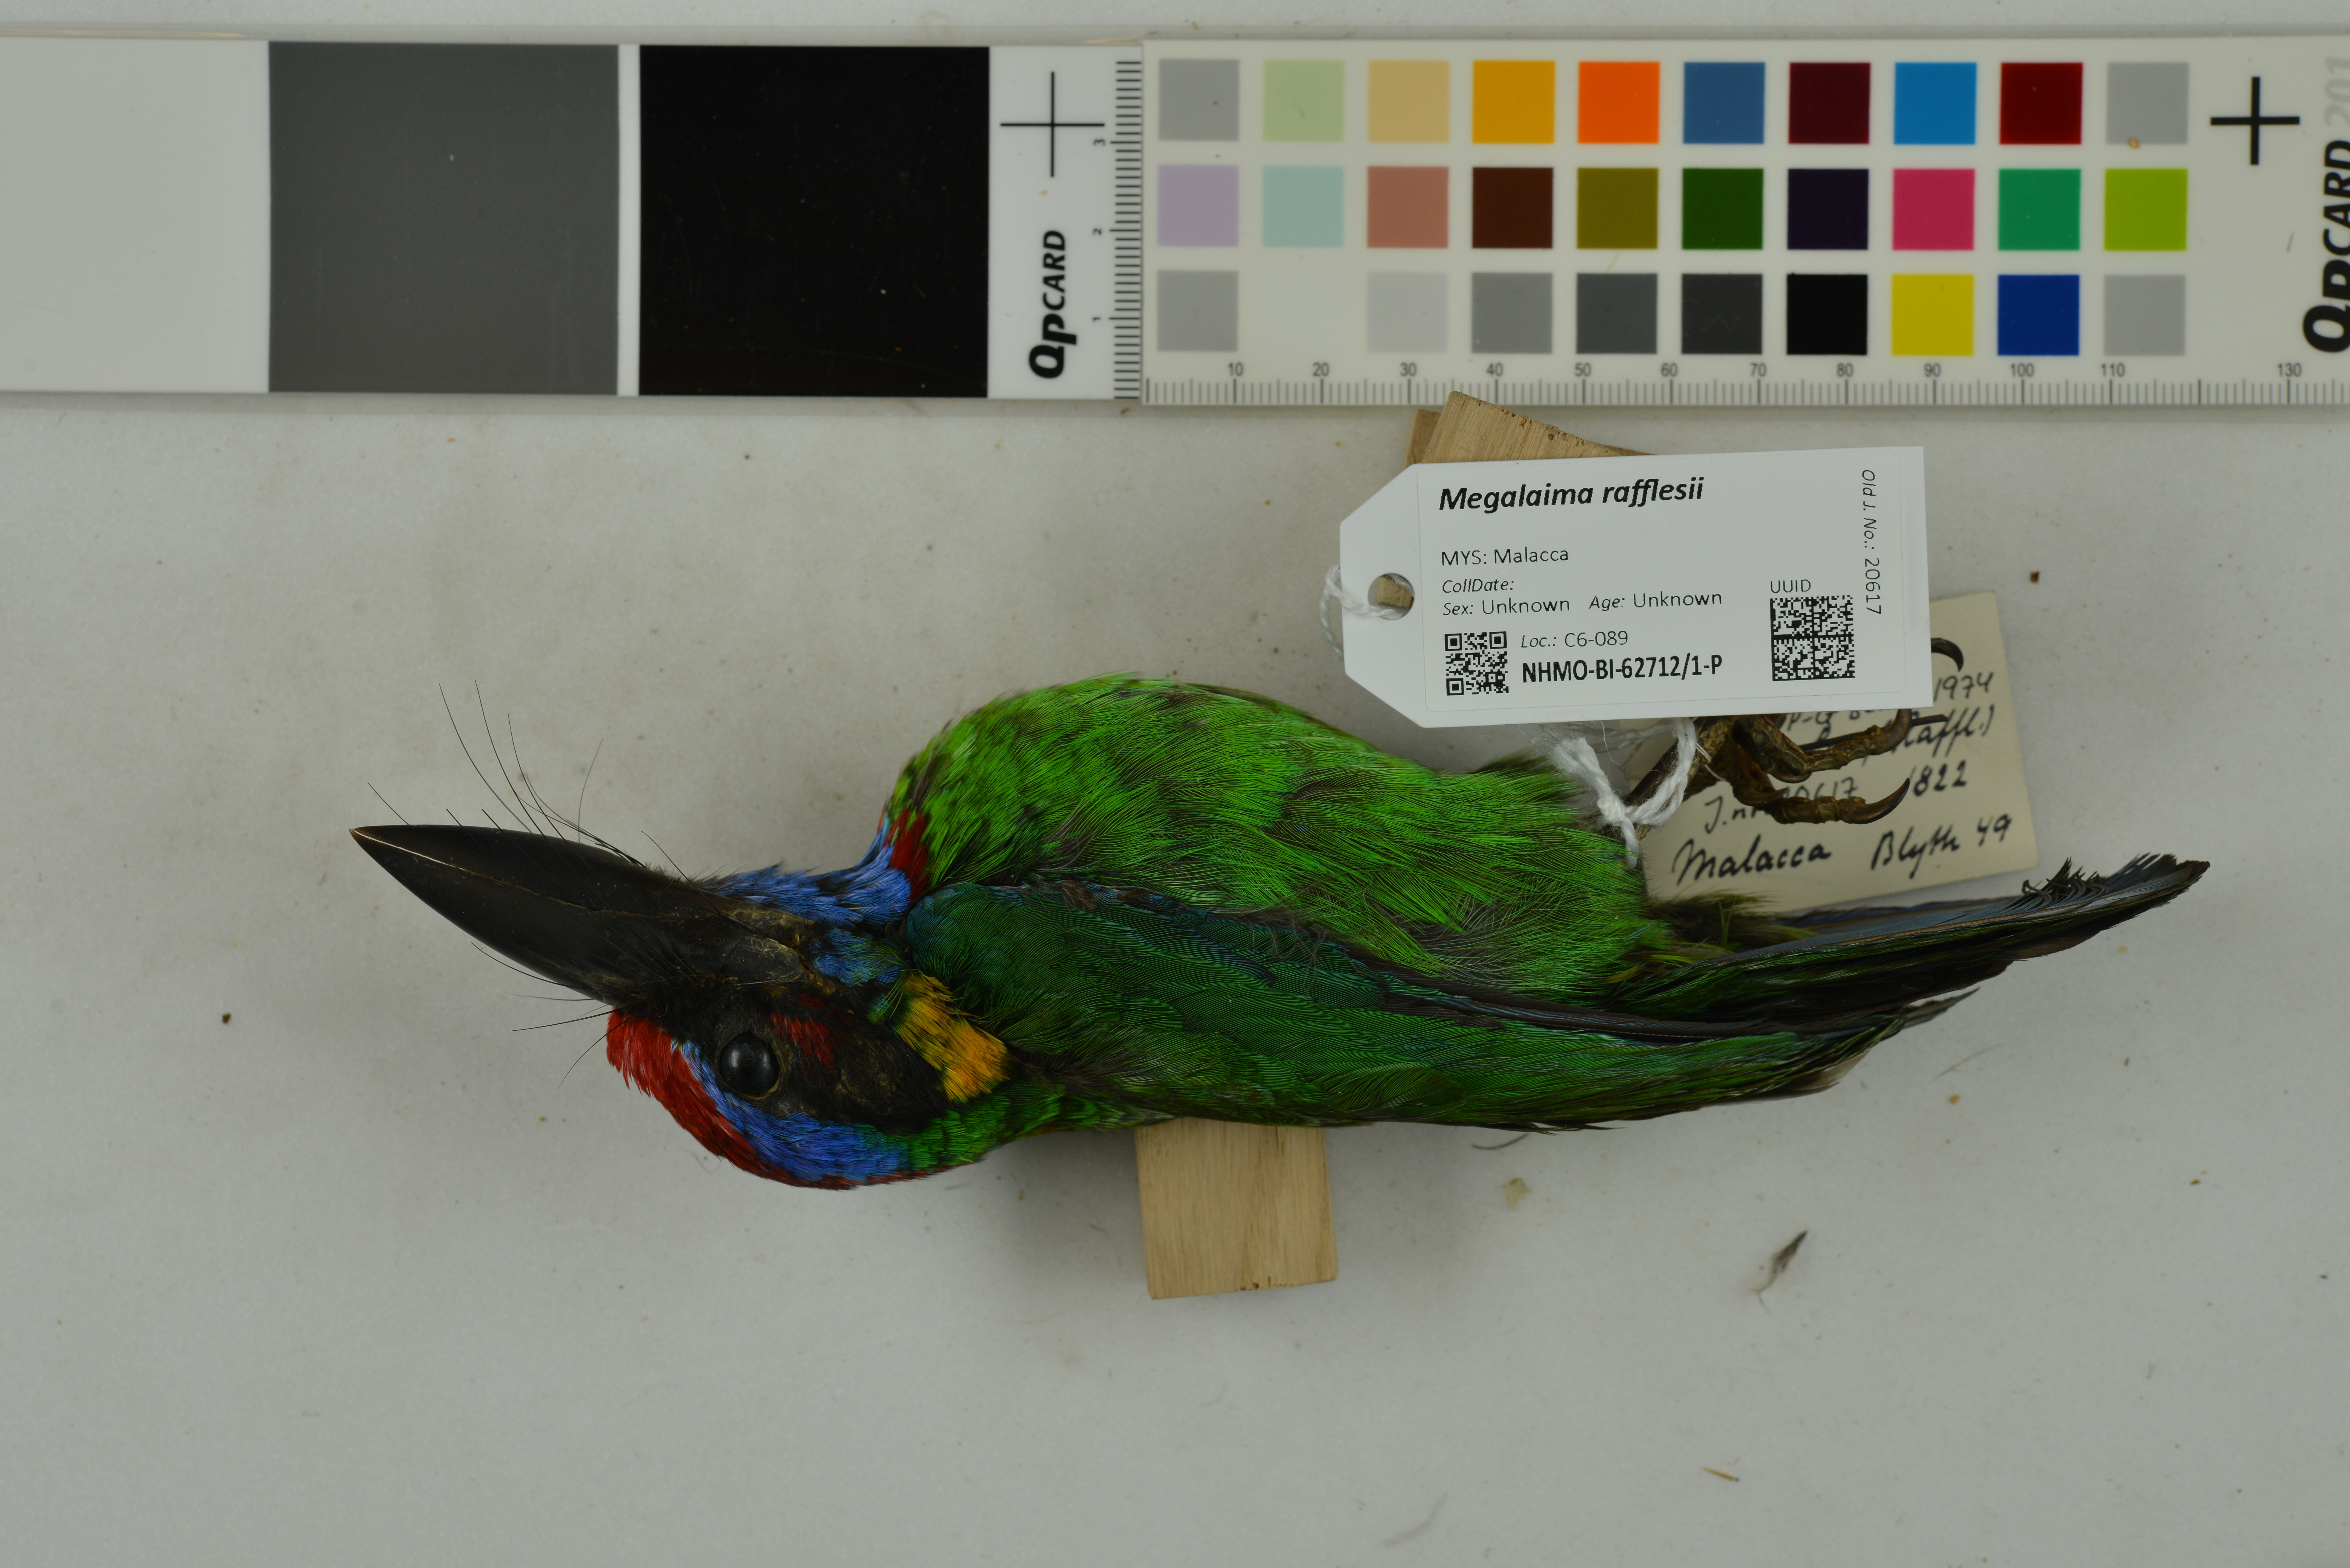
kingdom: Animalia
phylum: Chordata
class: Aves
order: Piciformes
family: Megalaimidae
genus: Psilopogon
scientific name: Psilopogon rafflesii
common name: Red-crowned barbet
